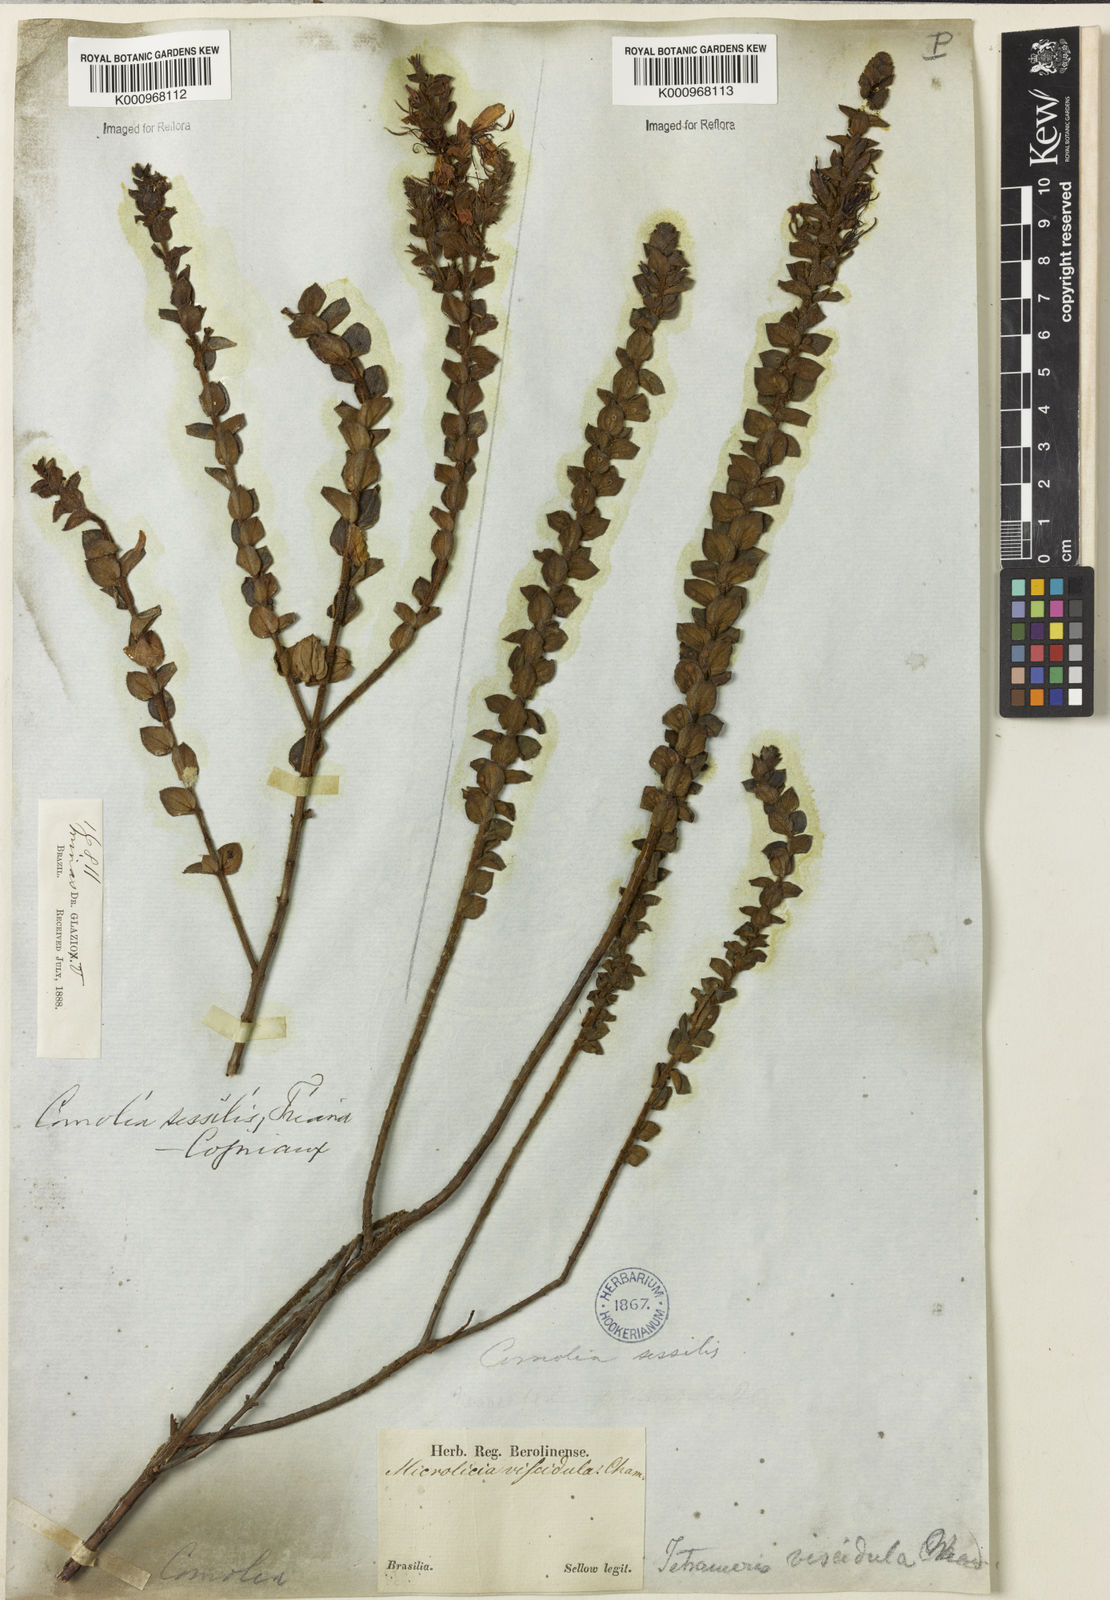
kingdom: Plantae
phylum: Tracheophyta
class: Magnoliopsida
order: Myrtales
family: Melastomataceae
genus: Fritzschia
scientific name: Fritzschia sessilis
